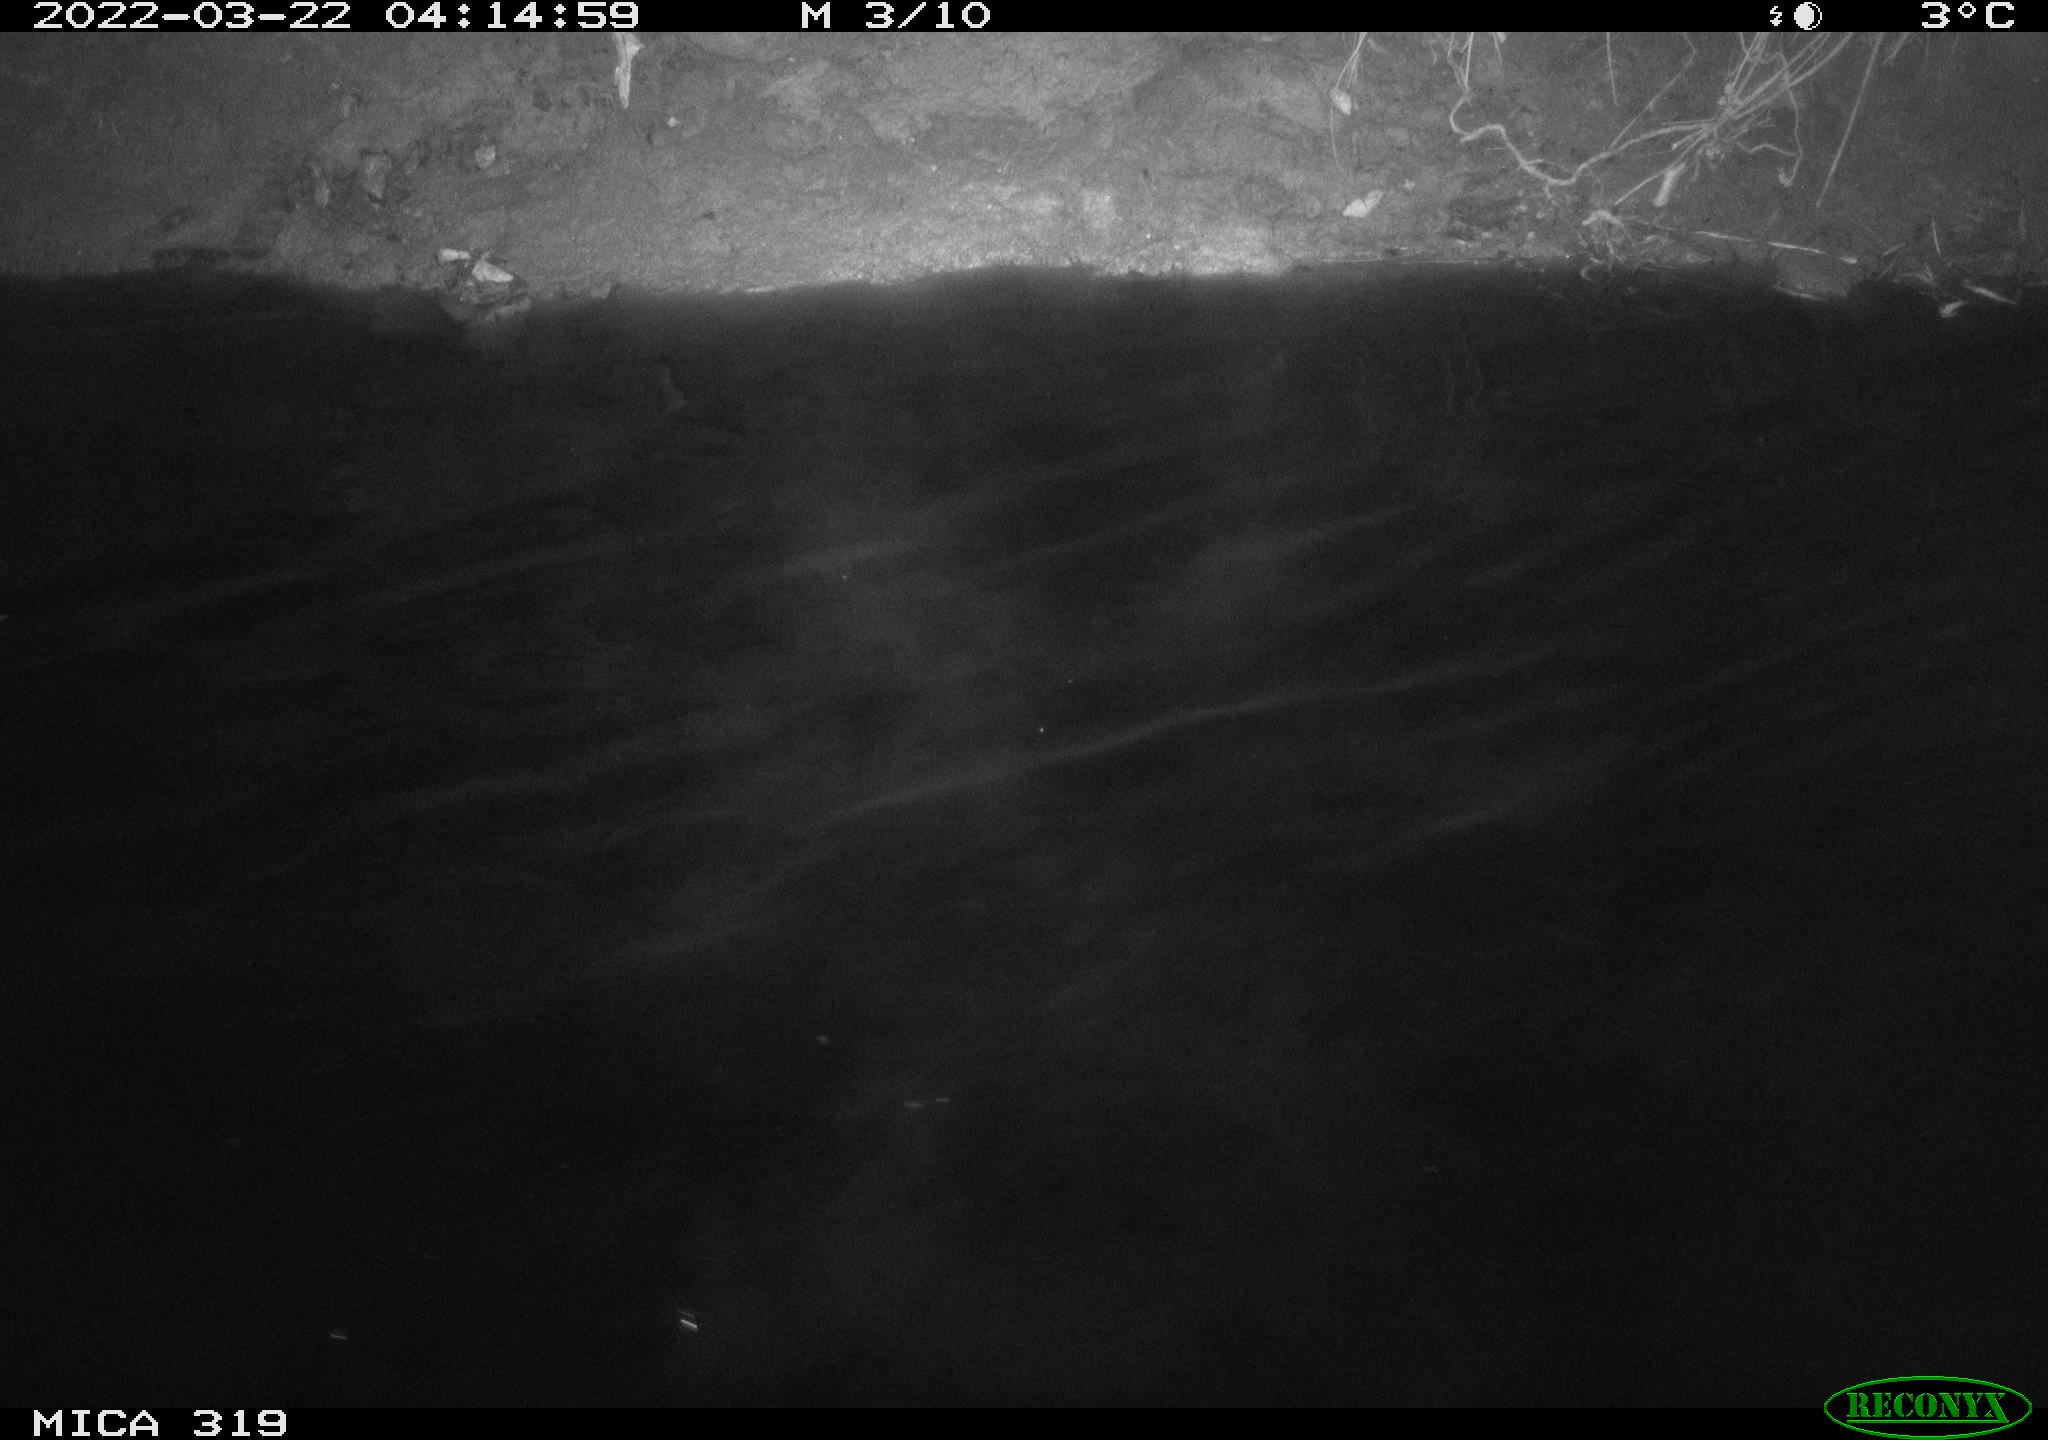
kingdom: Animalia
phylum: Chordata
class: Aves
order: Anseriformes
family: Anatidae
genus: Anas
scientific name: Anas platyrhynchos
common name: Mallard
